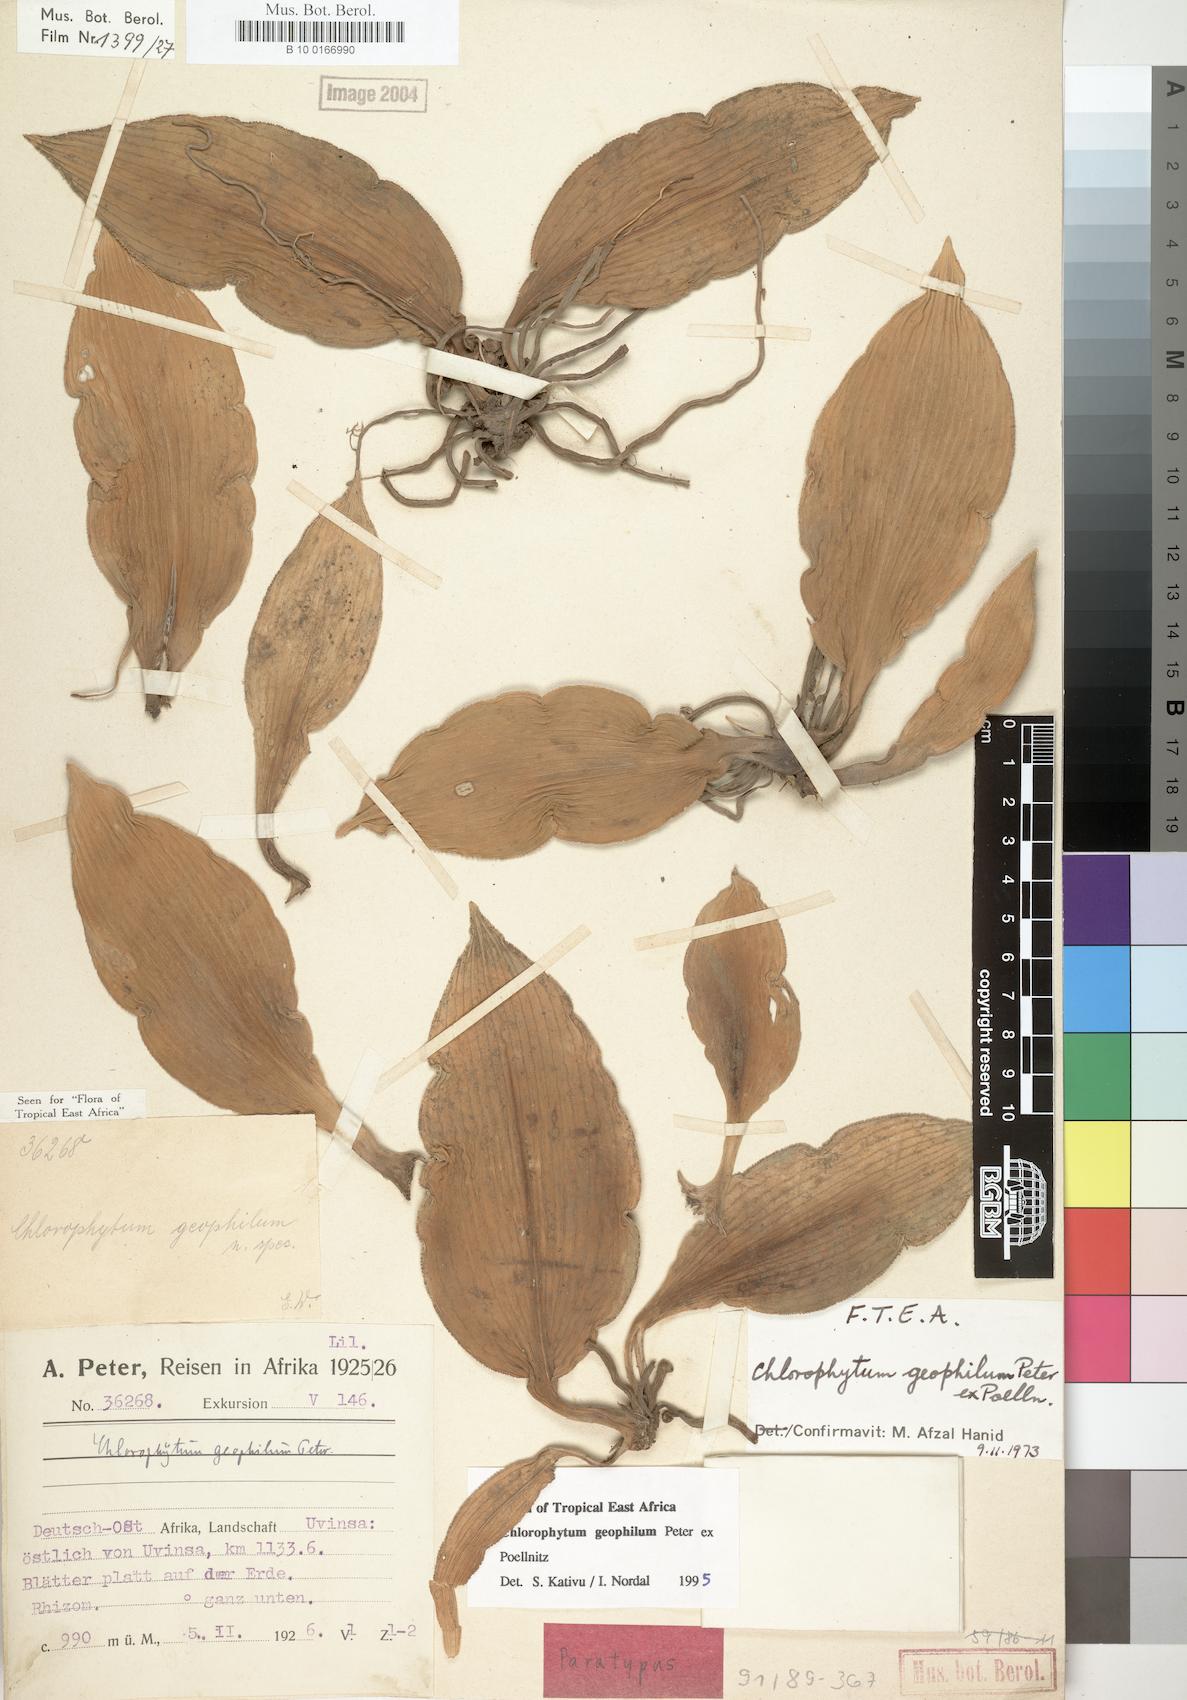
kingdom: Plantae
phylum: Tracheophyta
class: Liliopsida
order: Asparagales
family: Asparagaceae
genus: Chlorophytum
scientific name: Chlorophytum geophilum
